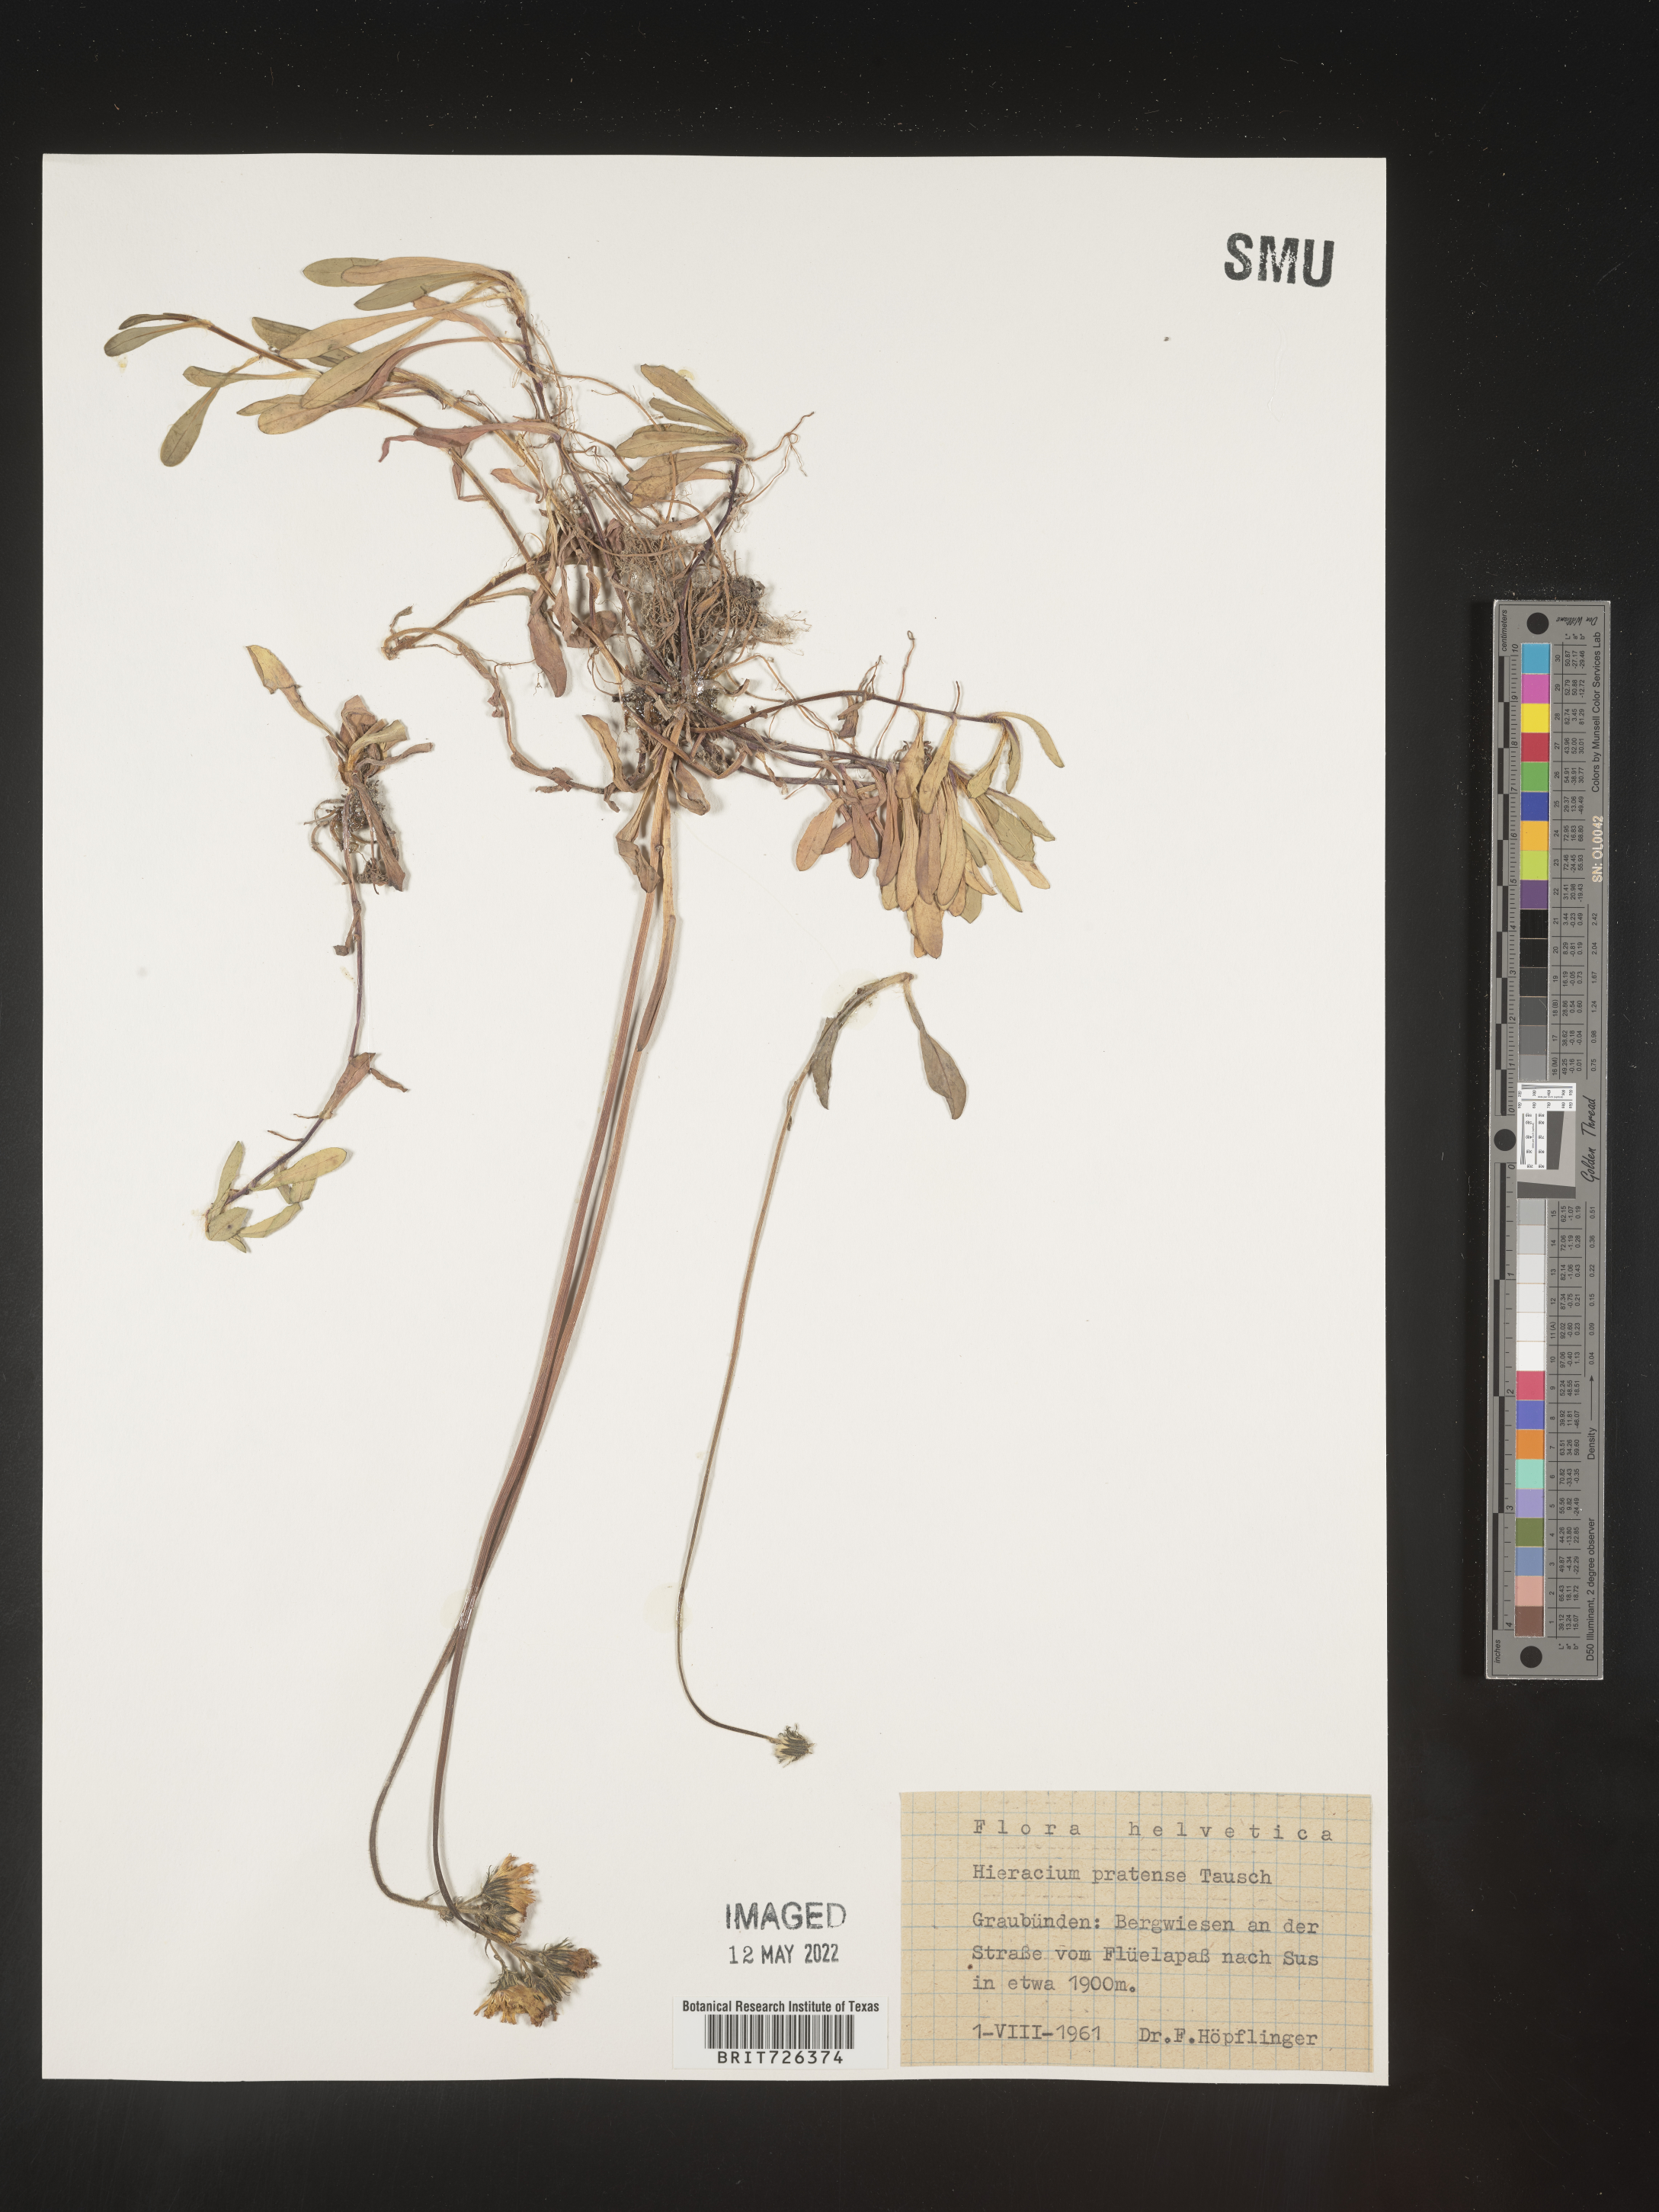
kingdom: Plantae
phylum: Tracheophyta
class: Magnoliopsida
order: Asterales
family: Asteraceae
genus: Hieracium
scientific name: Hieracium
